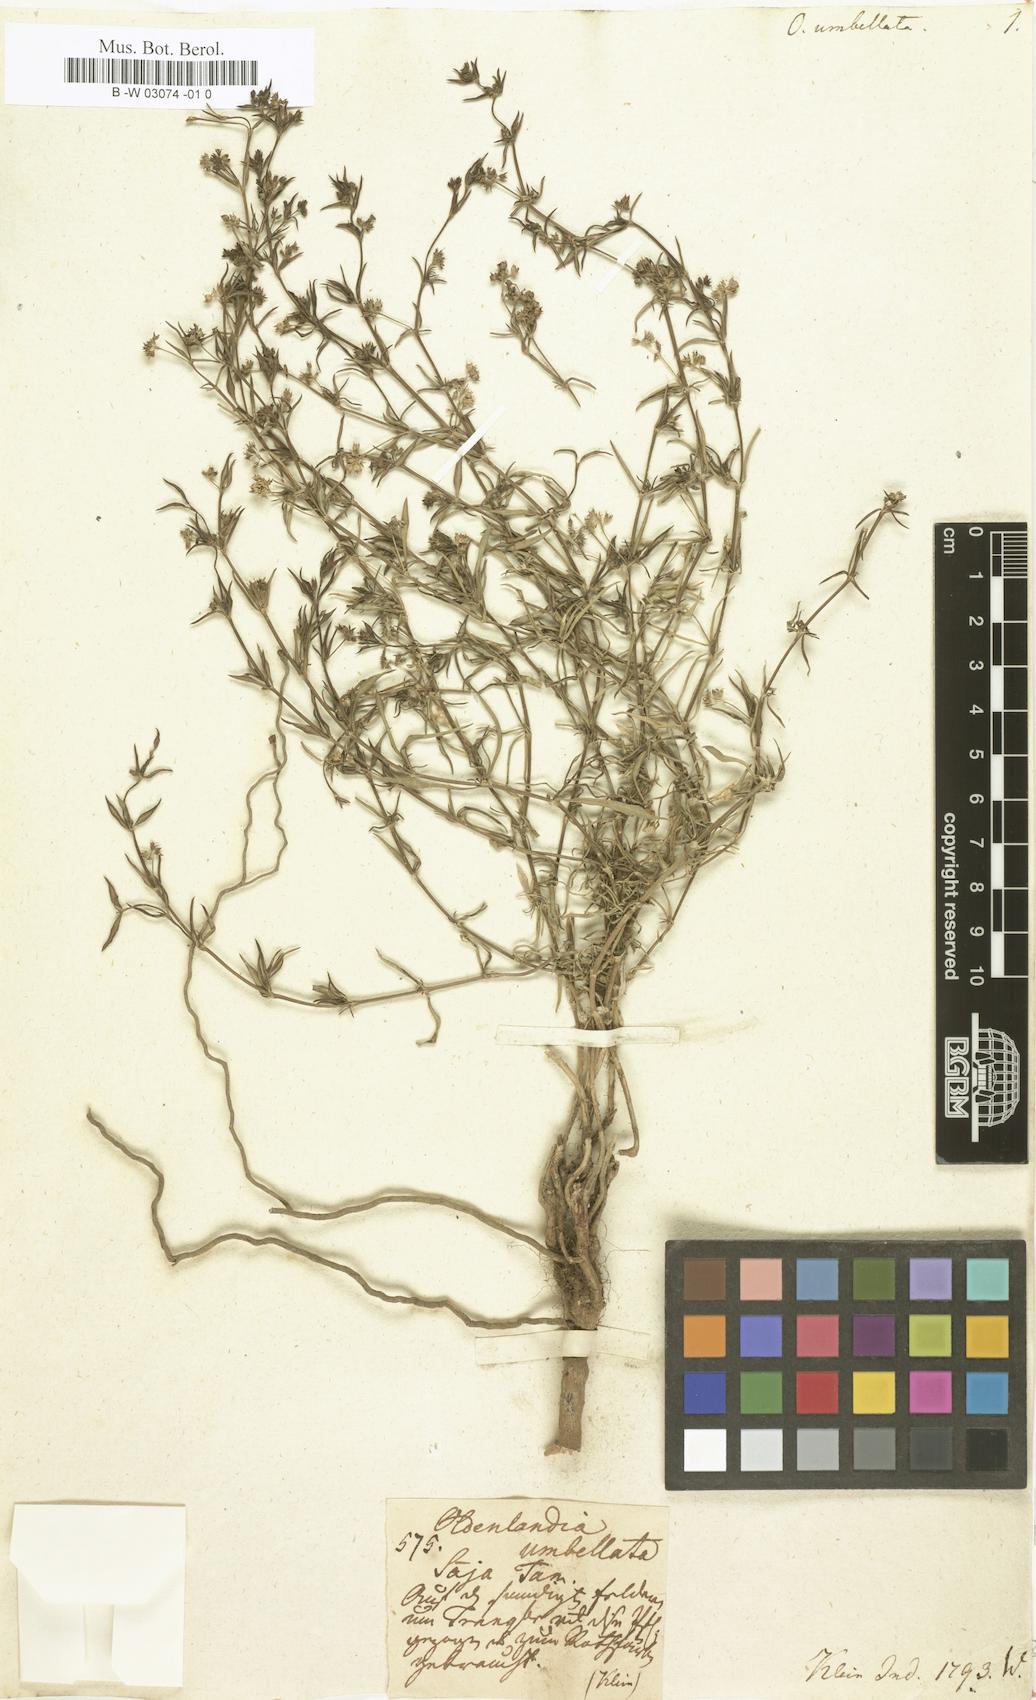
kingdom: Plantae
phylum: Tracheophyta
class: Magnoliopsida
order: Gentianales
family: Rubiaceae
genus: Oldenlandia
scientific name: Oldenlandia umbellata
